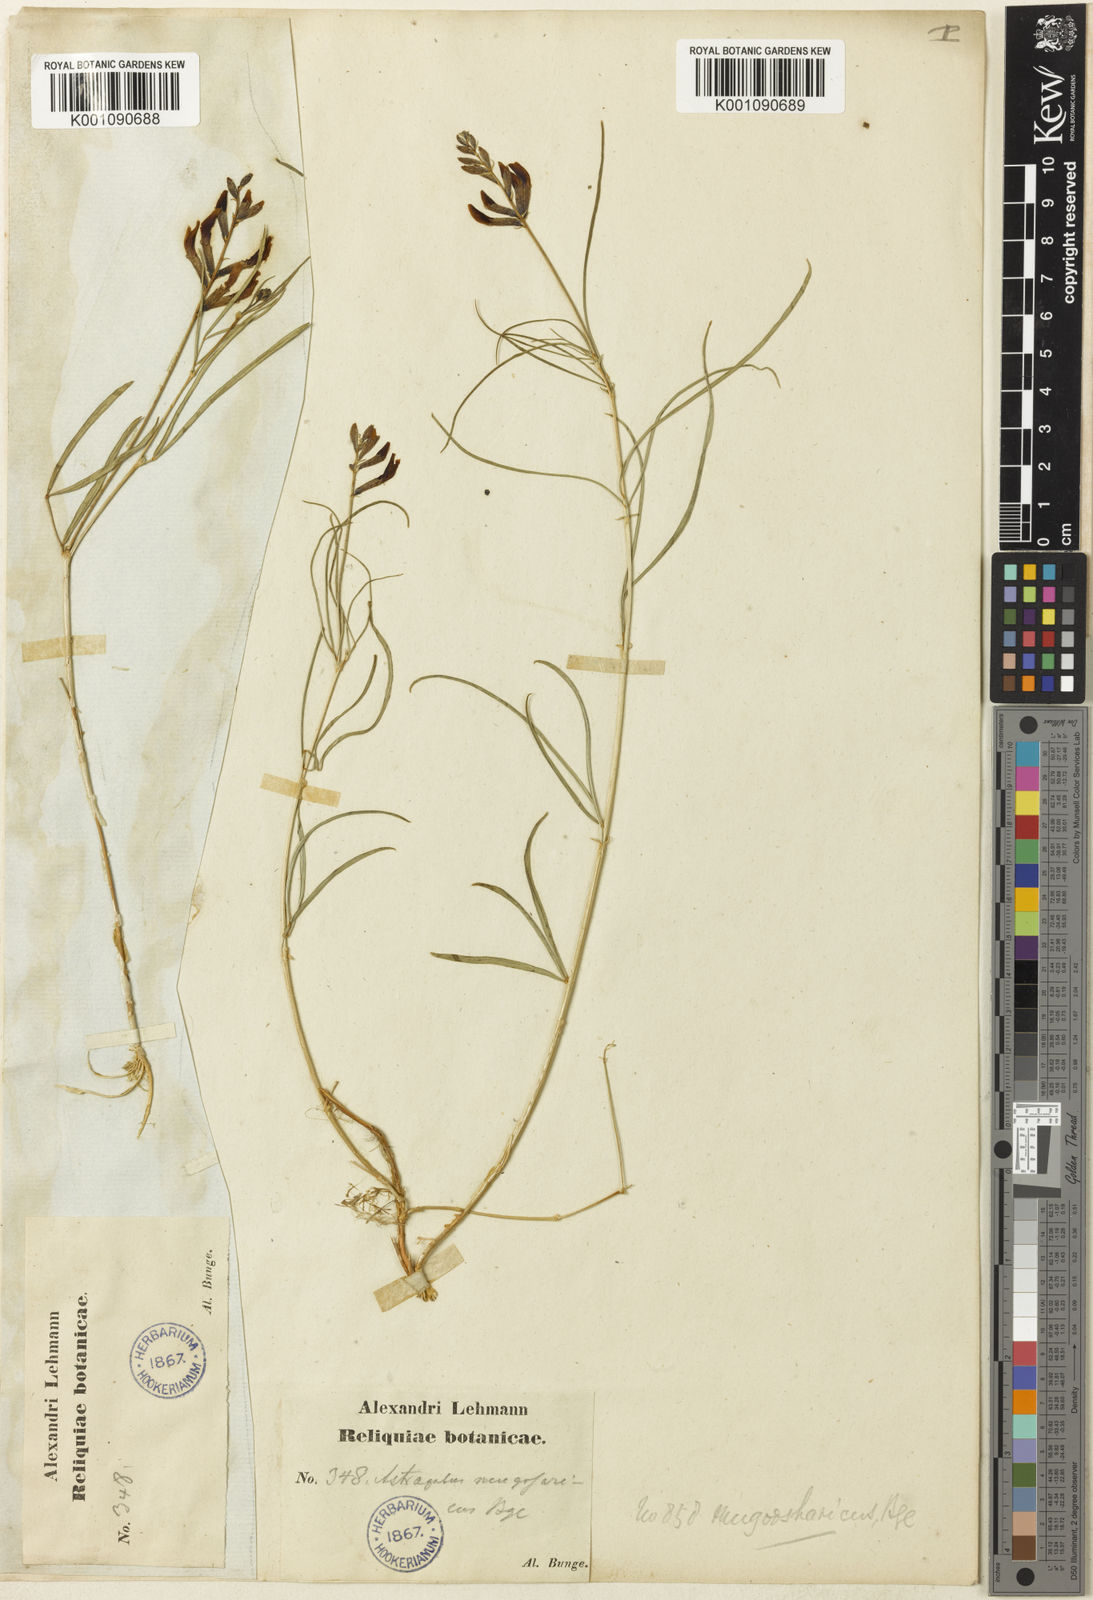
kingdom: Plantae
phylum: Tracheophyta
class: Magnoliopsida
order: Fabales
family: Fabaceae
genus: Astragalus
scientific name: Astragalus
